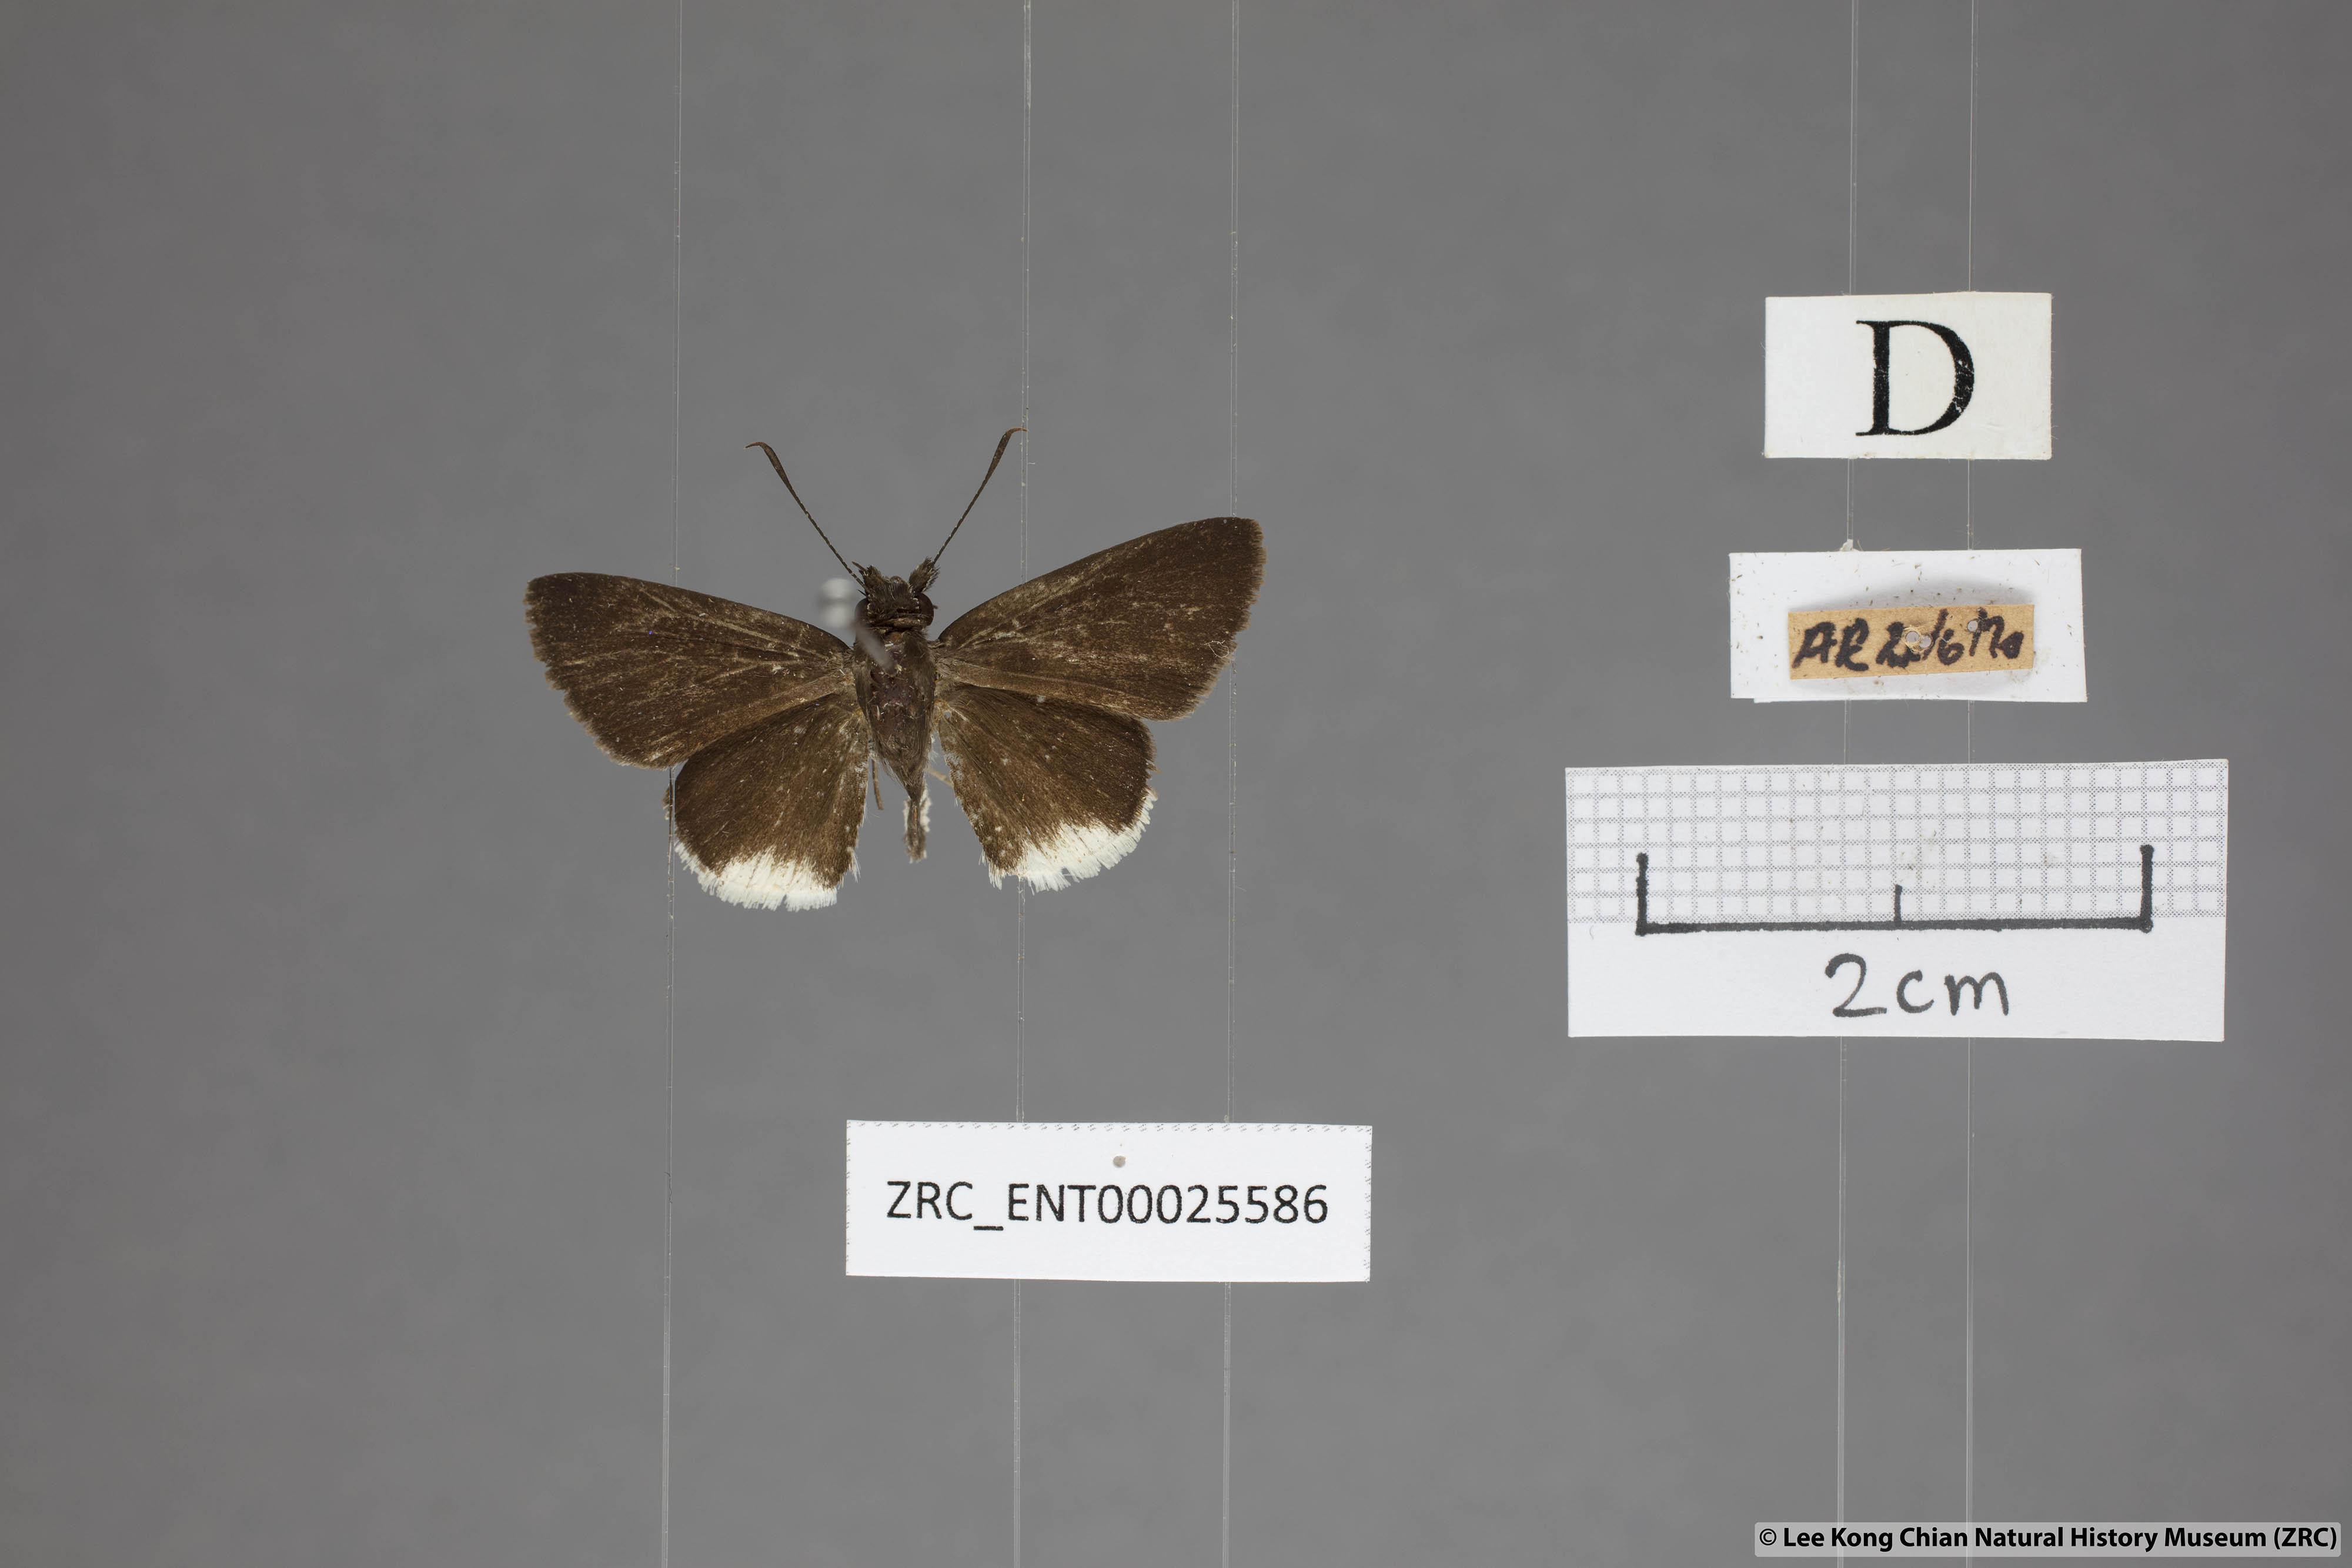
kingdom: Animalia
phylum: Arthropoda
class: Insecta
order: Lepidoptera
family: Hesperiidae
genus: Suastus
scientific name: Suastus everyx
